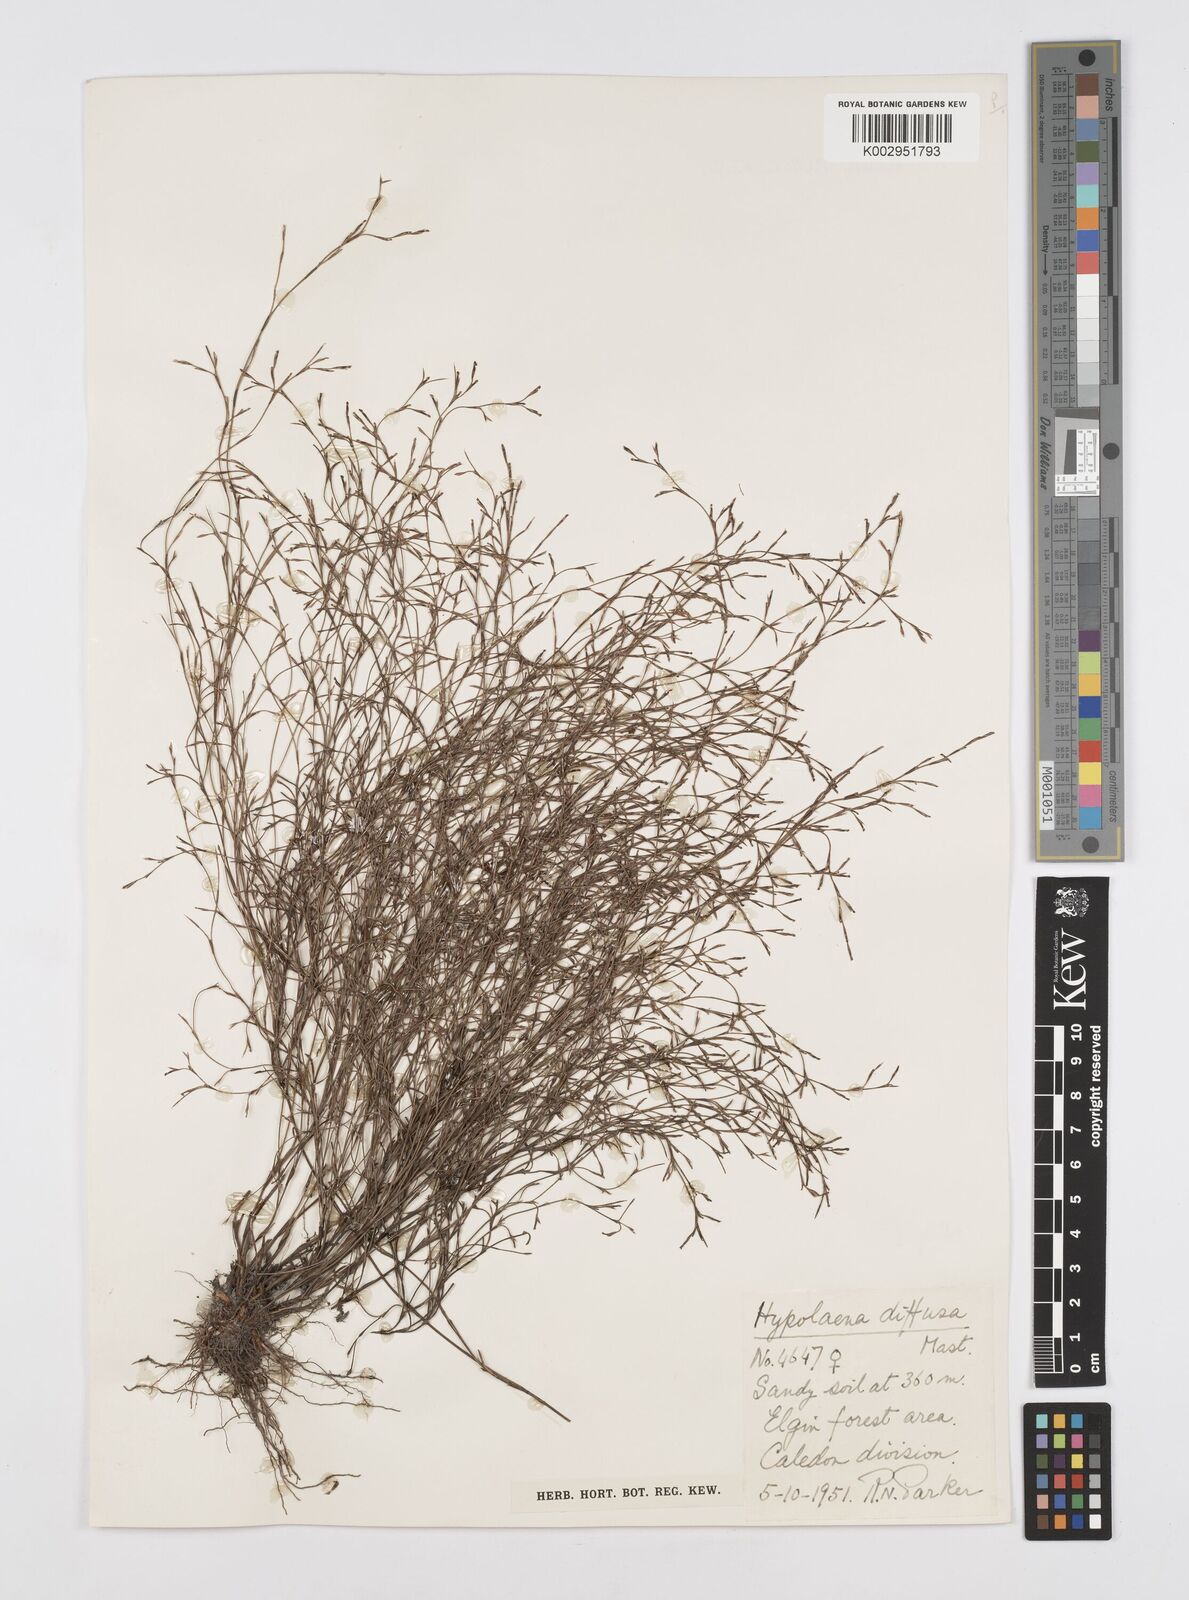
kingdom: Plantae
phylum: Tracheophyta
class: Liliopsida
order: Poales
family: Restionaceae
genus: Restio
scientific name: Restio versatilis
